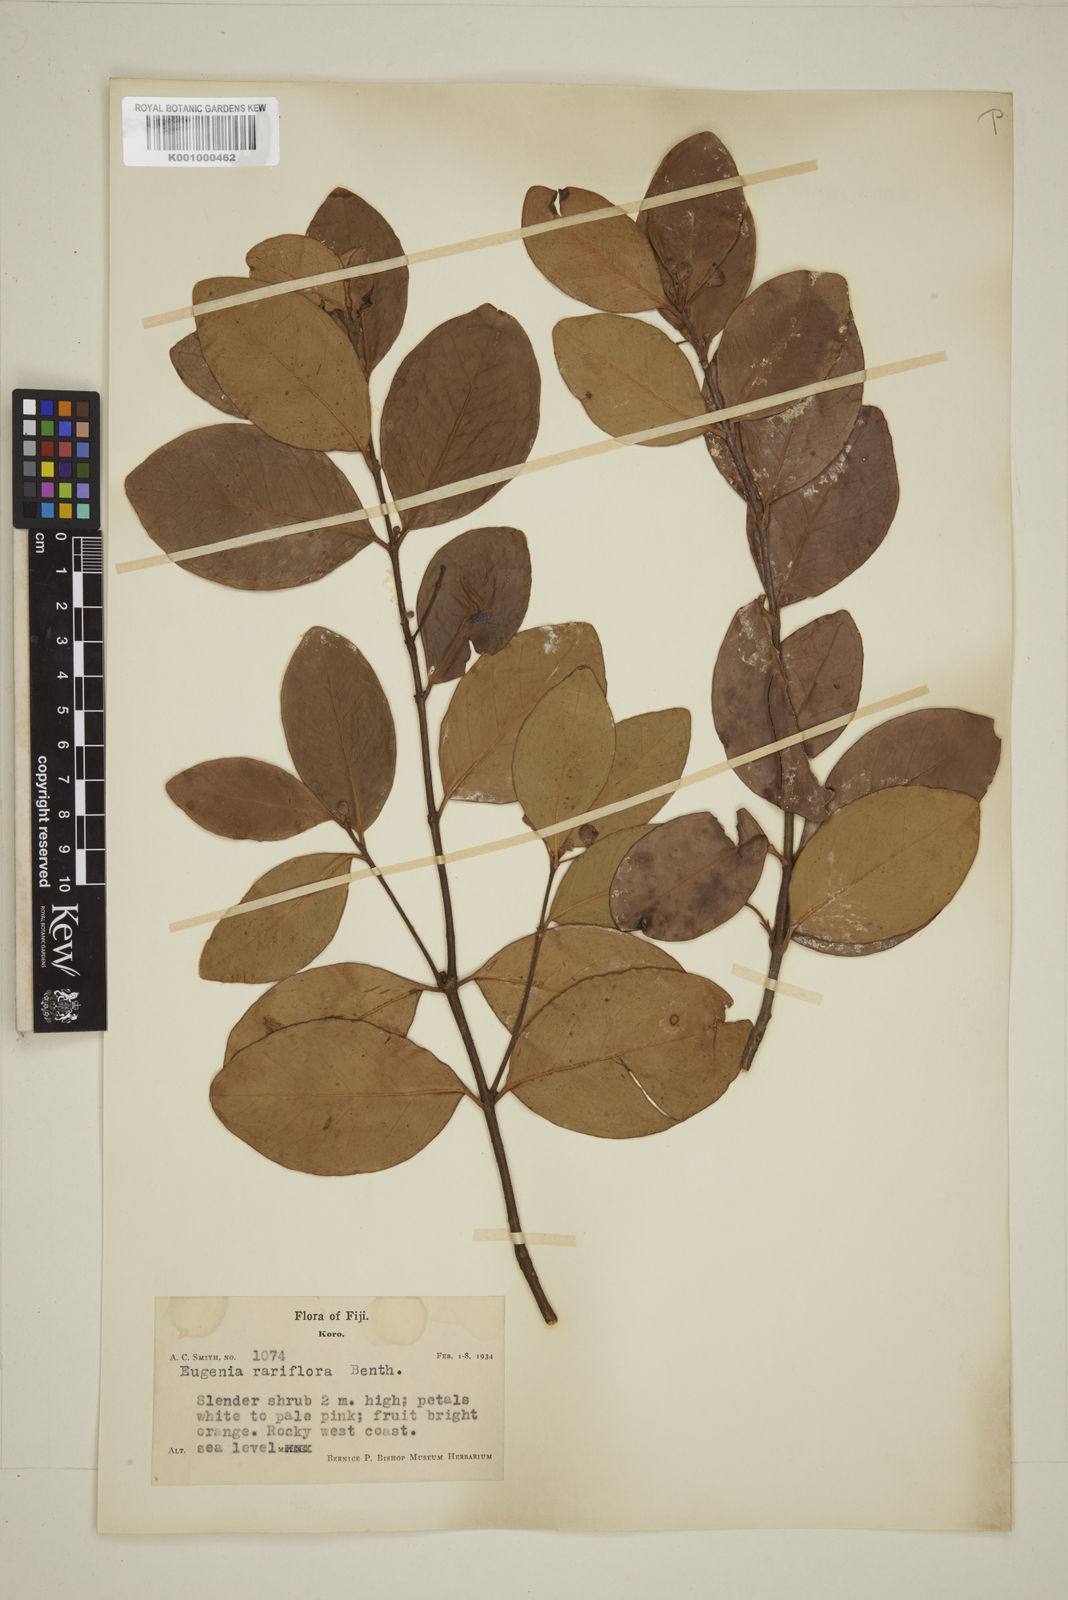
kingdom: Plantae
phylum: Tracheophyta
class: Magnoliopsida
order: Myrtales
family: Myrtaceae
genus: Eugenia
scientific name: Eugenia reinwardtiana
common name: Cedar bay-cherry
